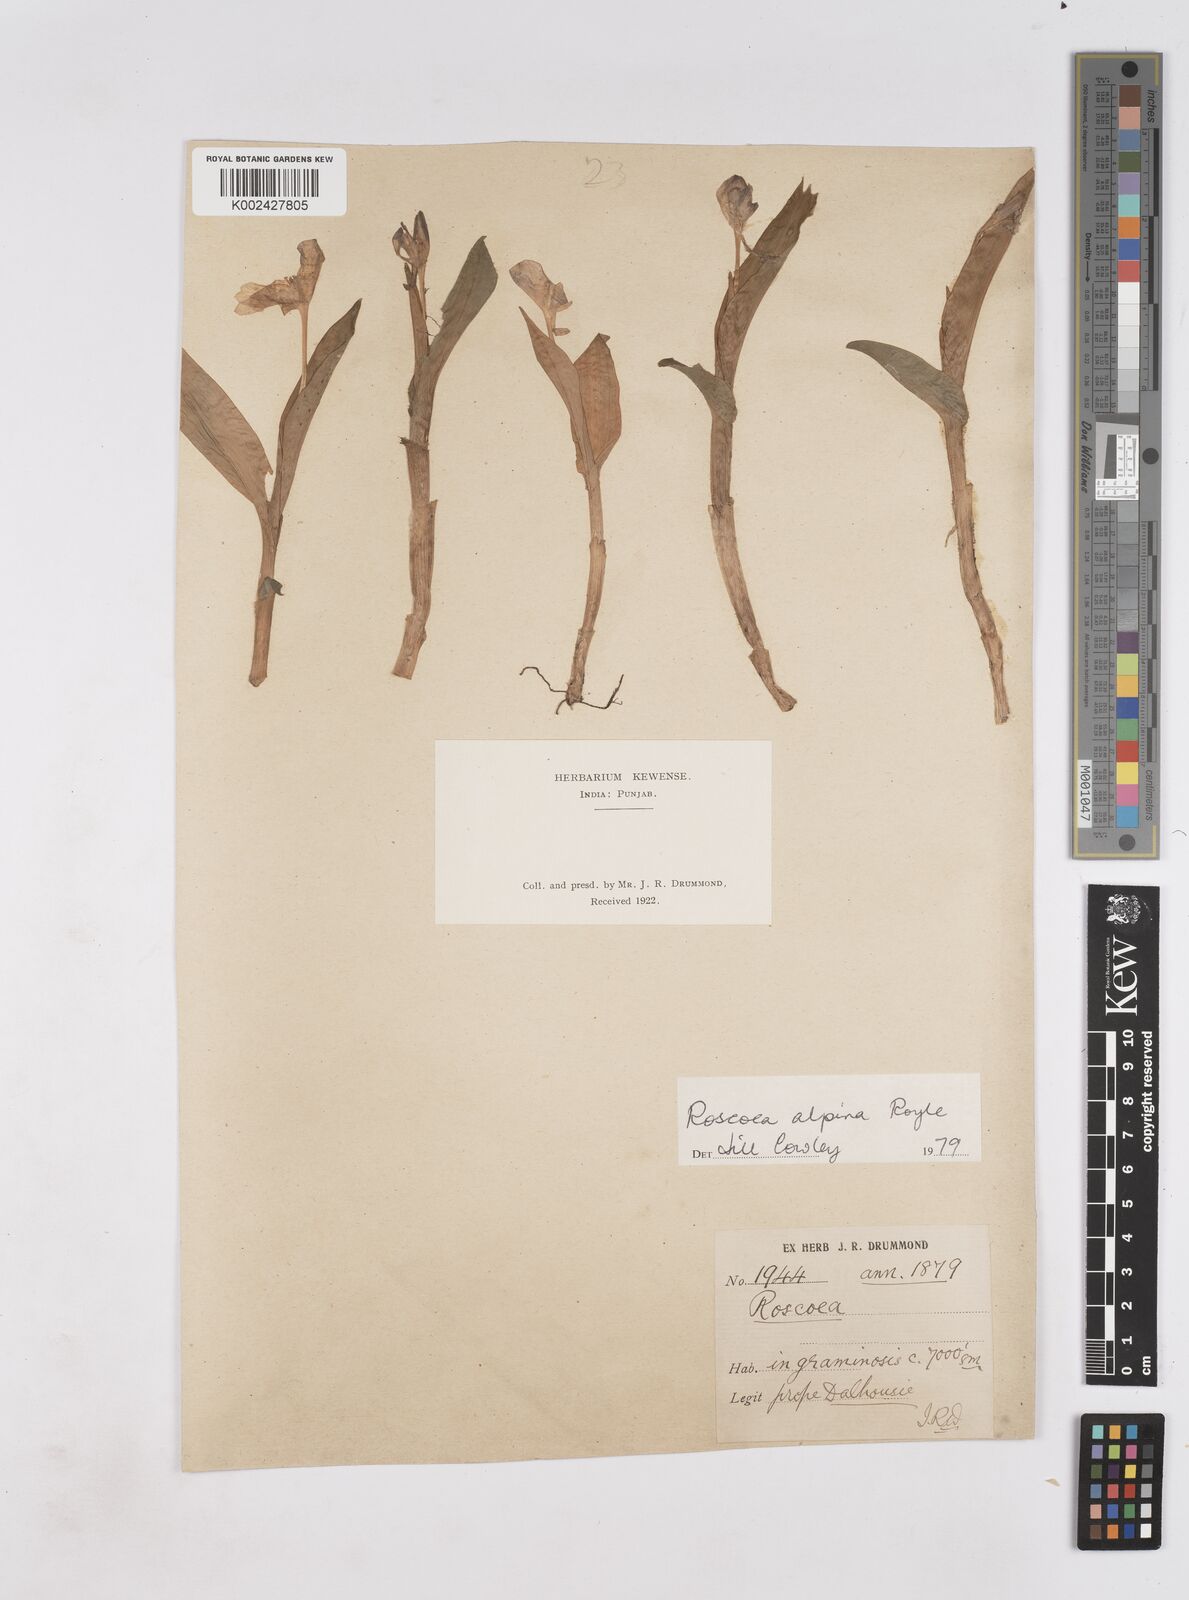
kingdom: Plantae
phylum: Tracheophyta
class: Liliopsida
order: Zingiberales
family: Zingiberaceae
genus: Roscoea
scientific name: Roscoea alpina
